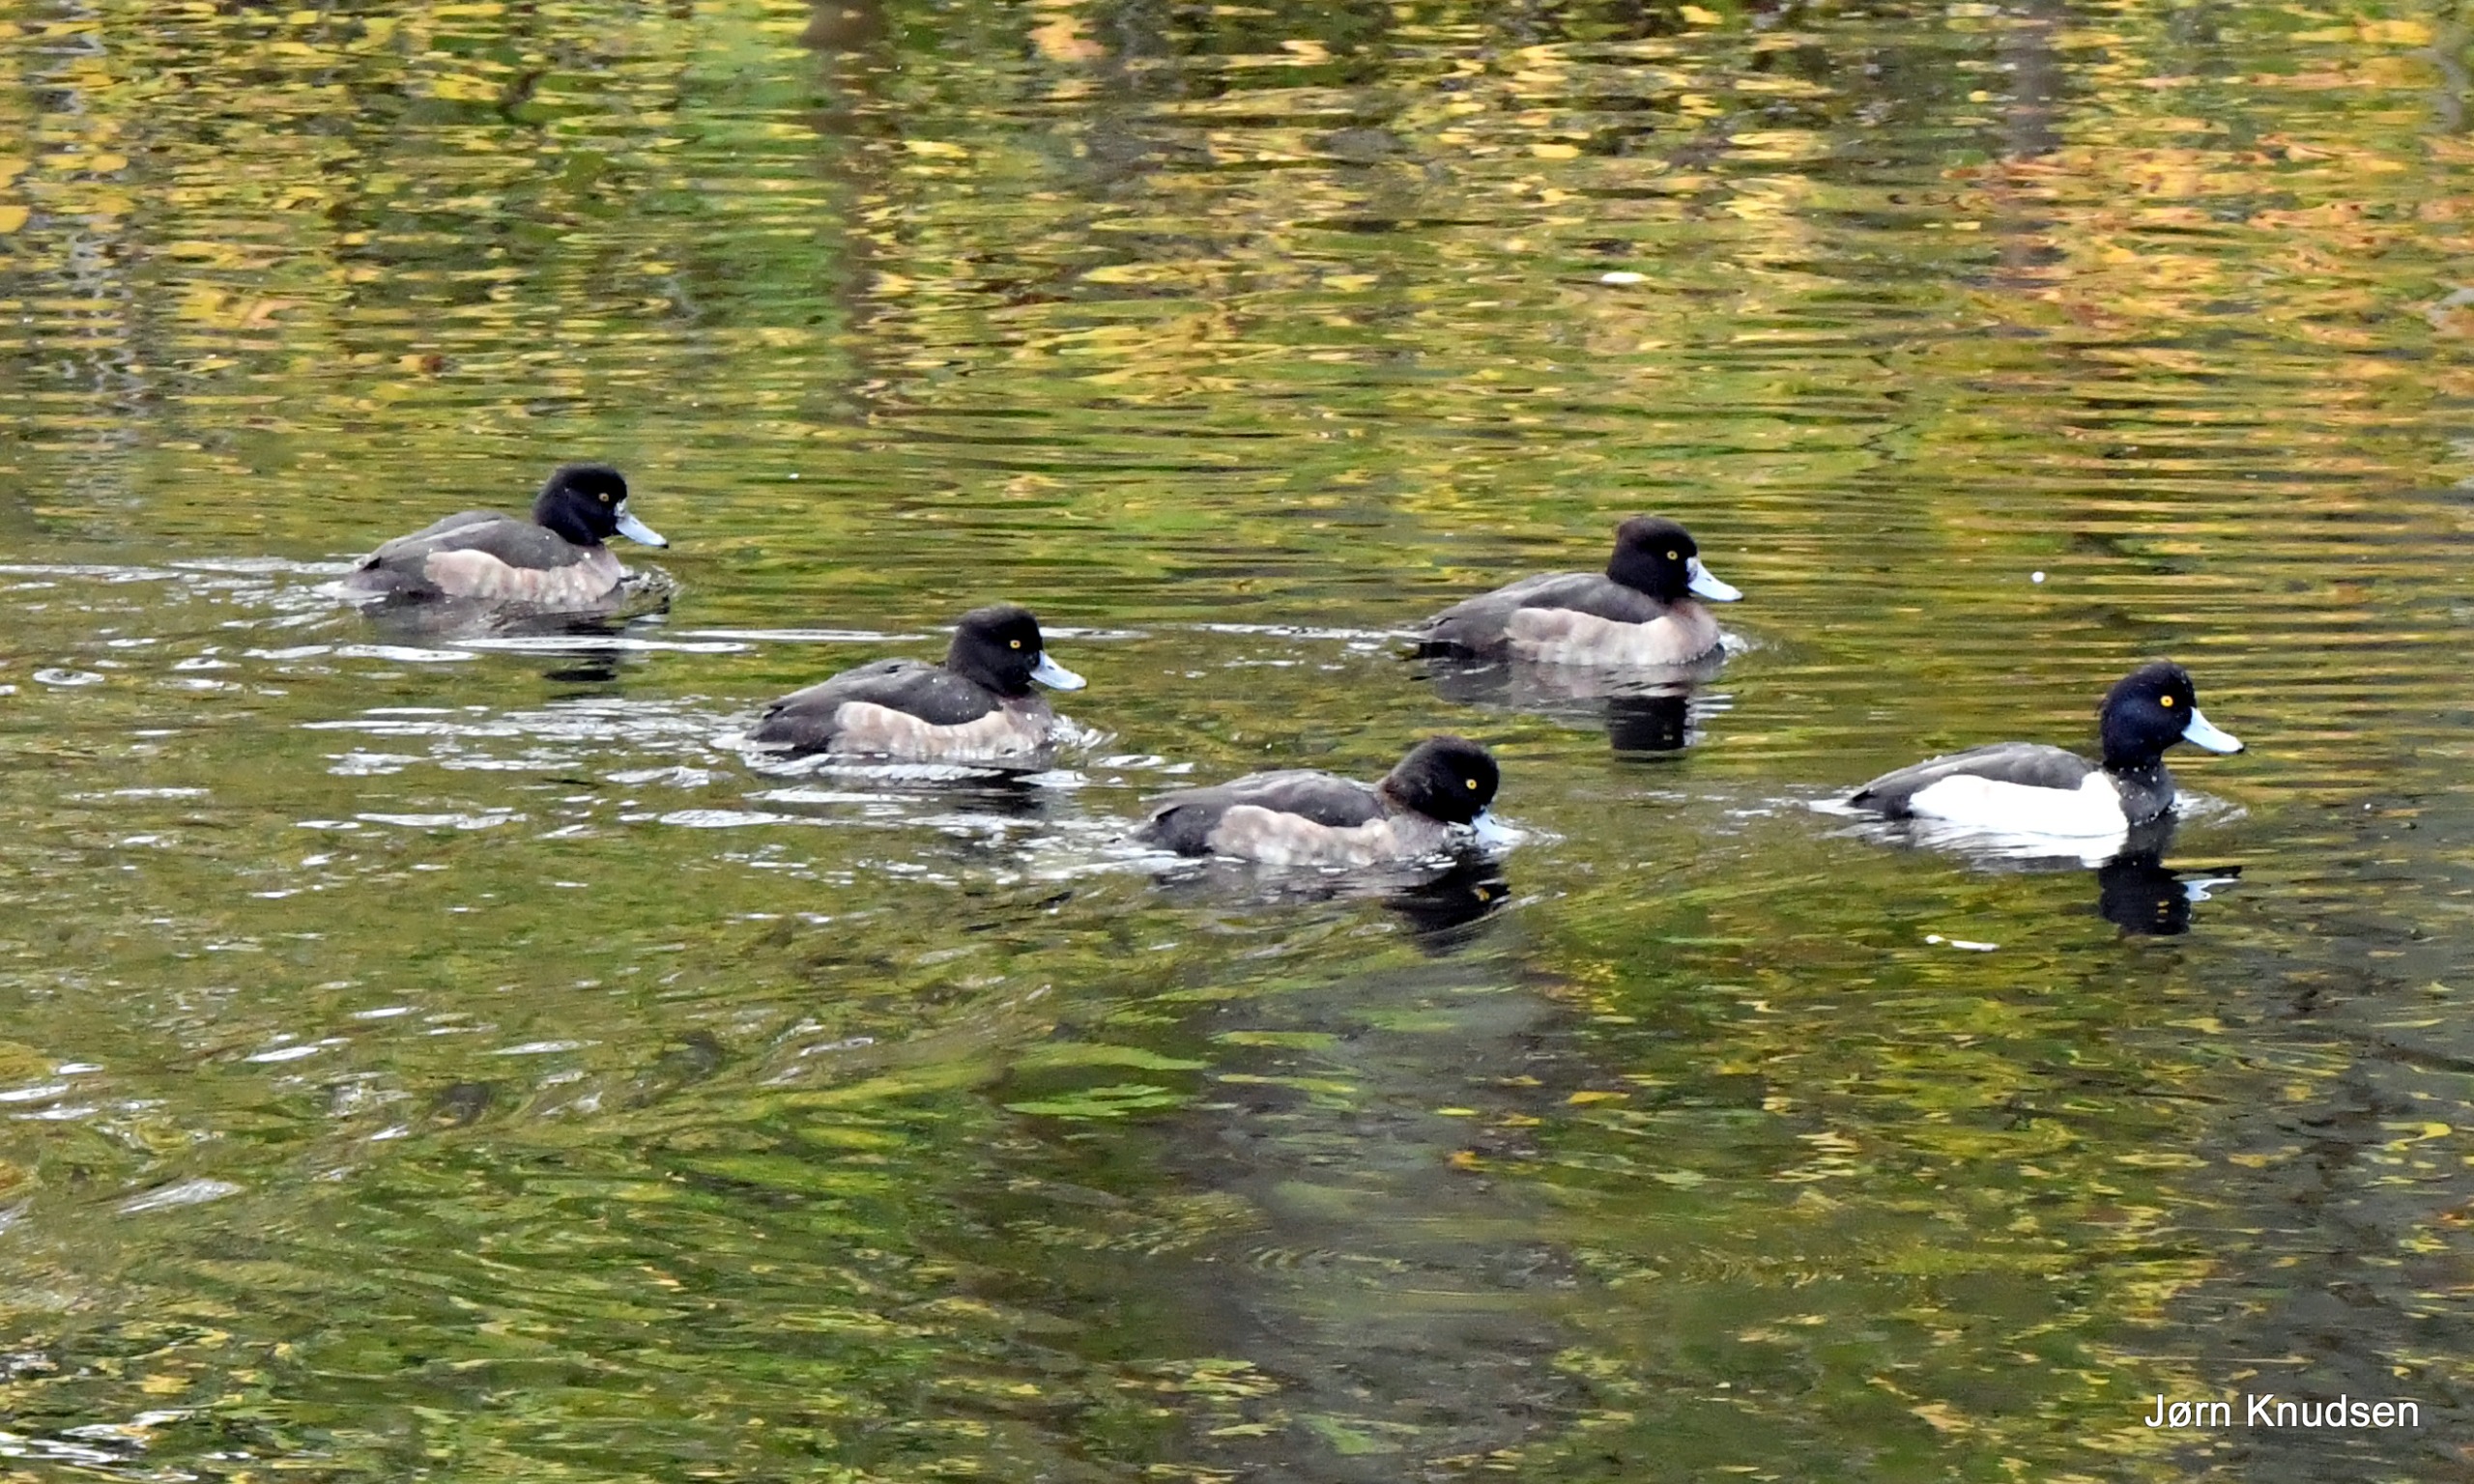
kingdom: Animalia
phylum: Chordata
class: Aves
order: Anseriformes
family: Anatidae
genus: Aythya
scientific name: Aythya fuligula
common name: Troldand
